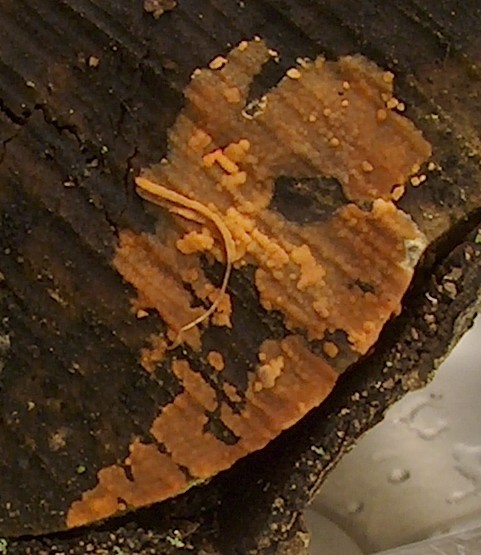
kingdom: Fungi
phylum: Basidiomycota
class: Agaricomycetes
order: Russulales
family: Peniophoraceae
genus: Peniophora
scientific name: Peniophora incarnata
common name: laksefarvet voksskind
